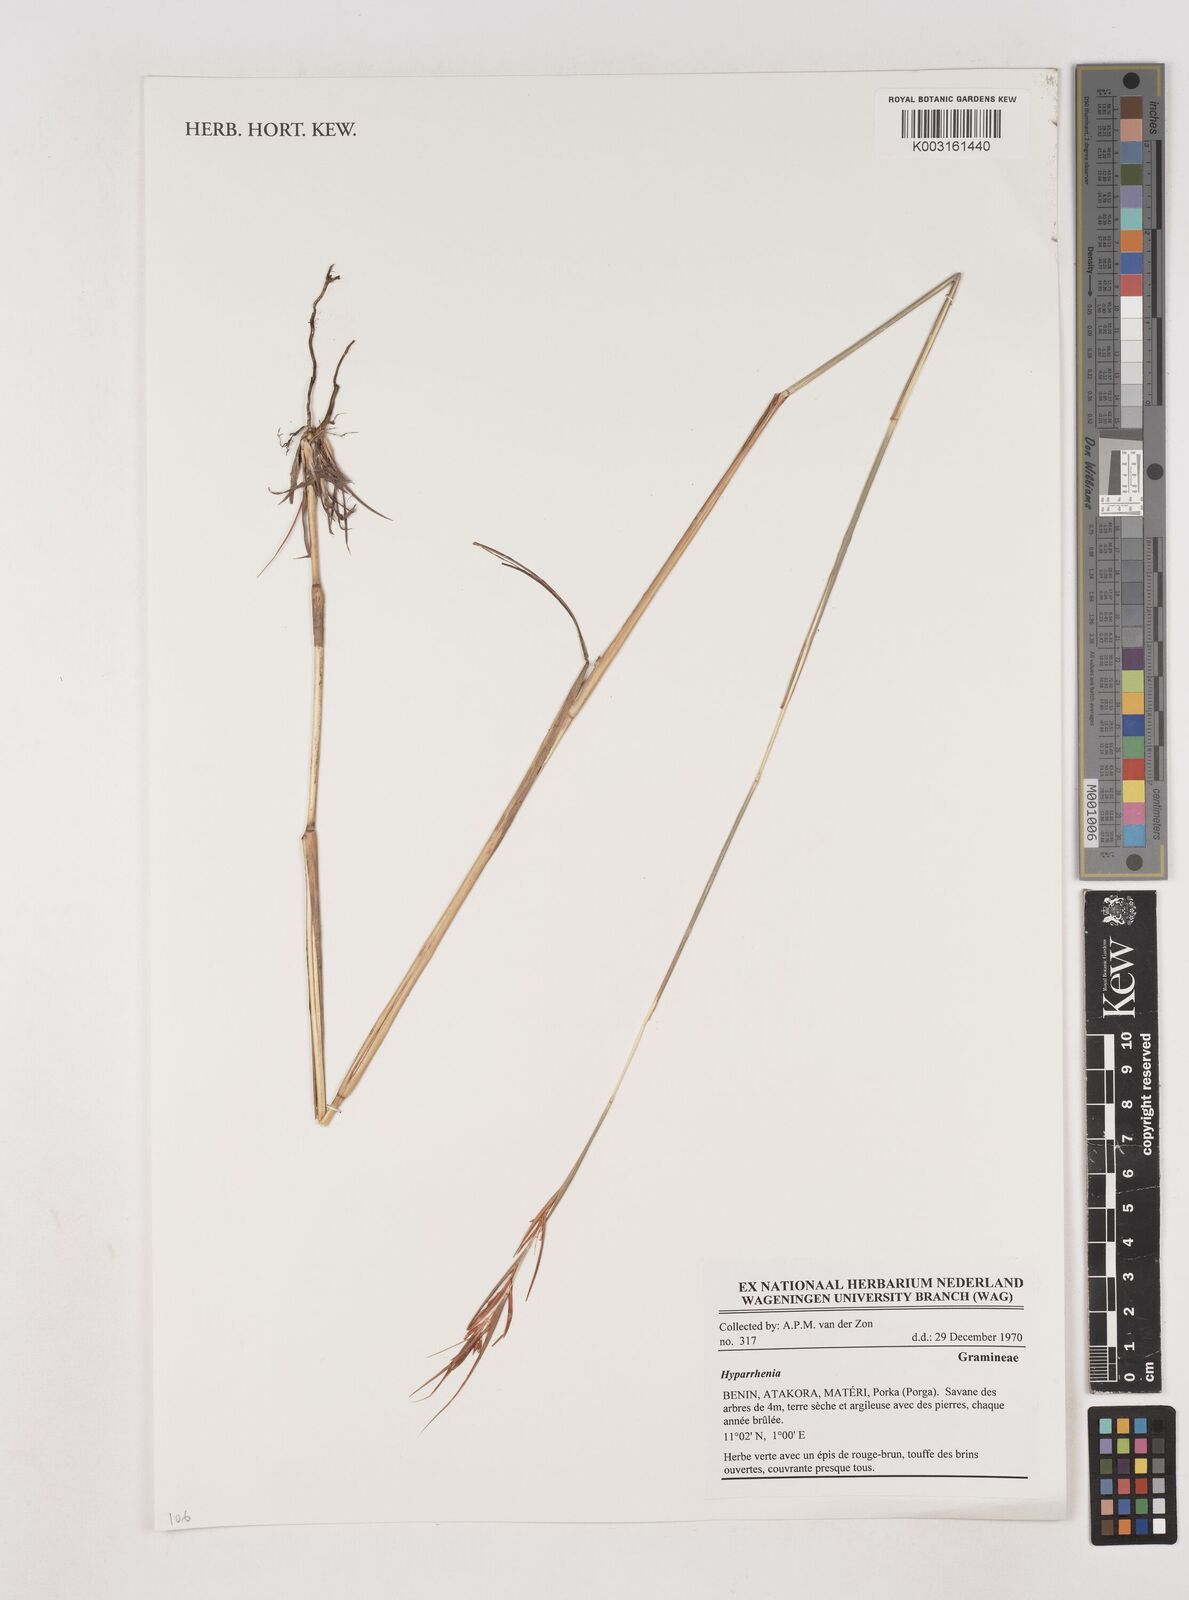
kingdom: Plantae
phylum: Tracheophyta
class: Liliopsida
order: Poales
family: Poaceae
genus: Hyparrhenia
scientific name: Hyparrhenia
